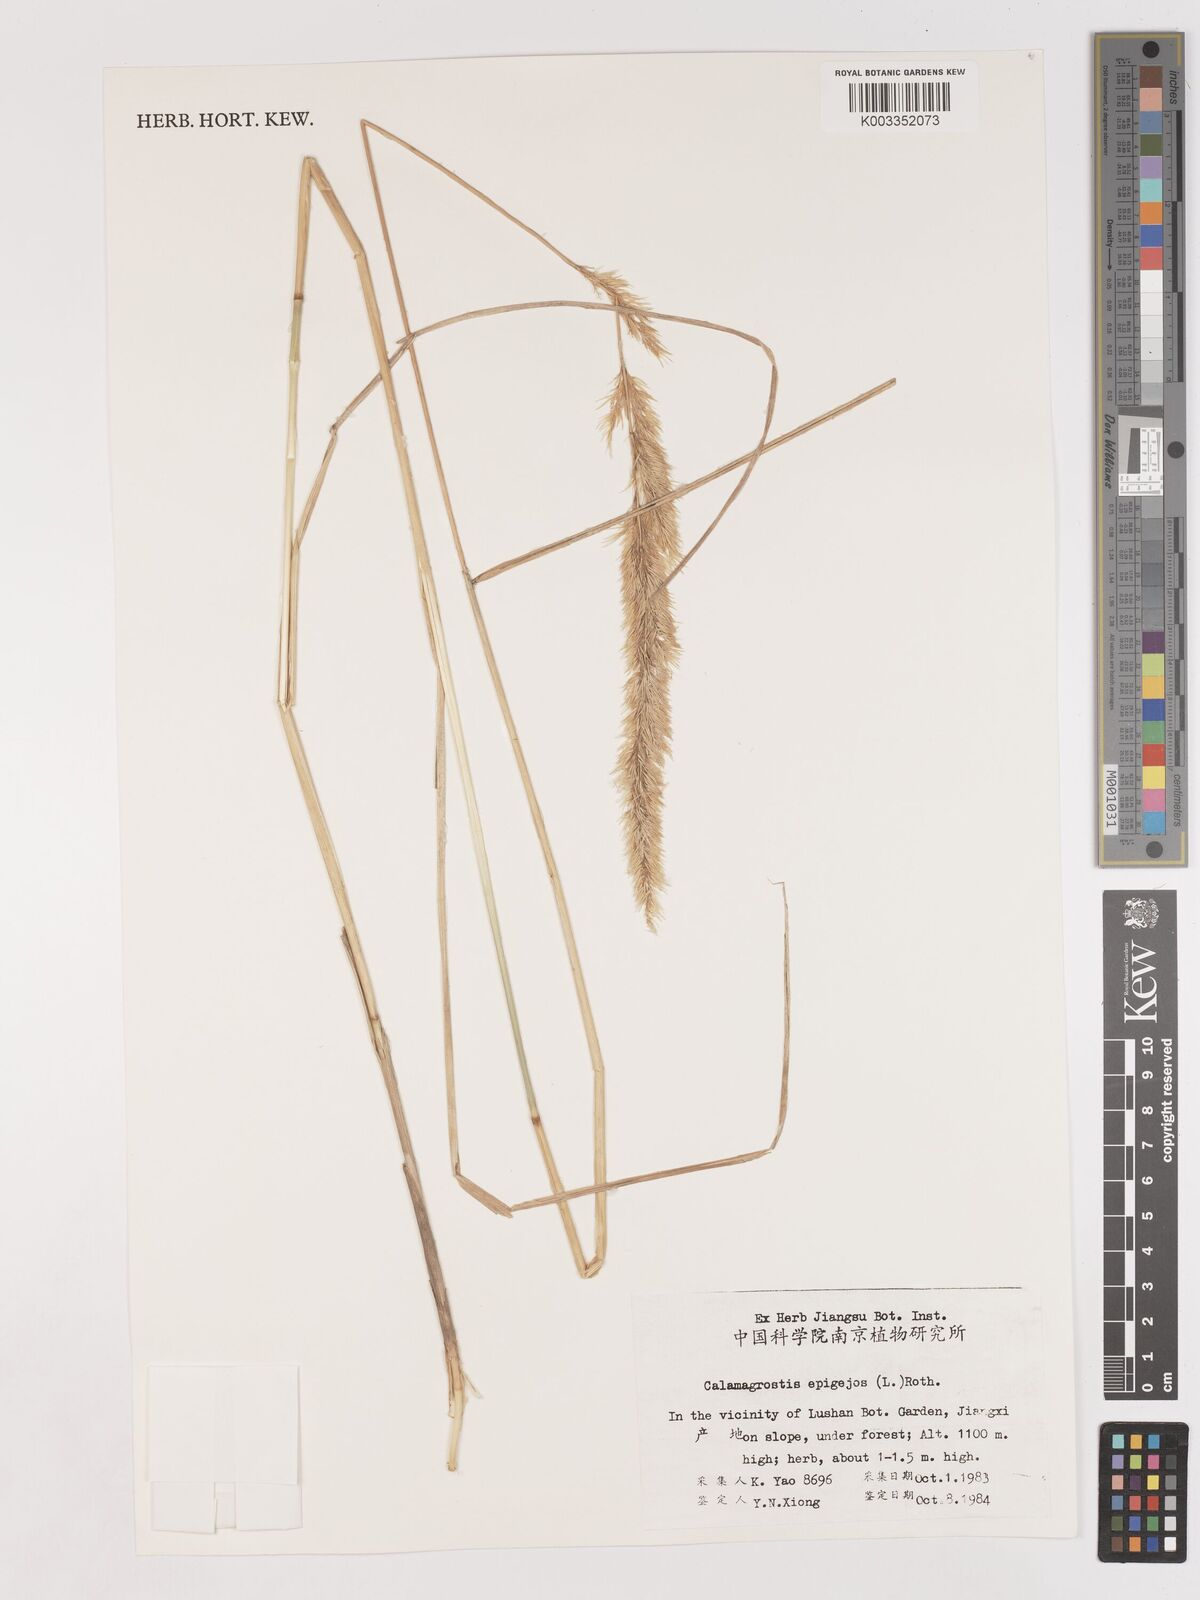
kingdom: Plantae
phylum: Tracheophyta
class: Liliopsida
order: Poales
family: Poaceae
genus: Calamagrostis
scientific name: Calamagrostis epigejos
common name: Wood small-reed
